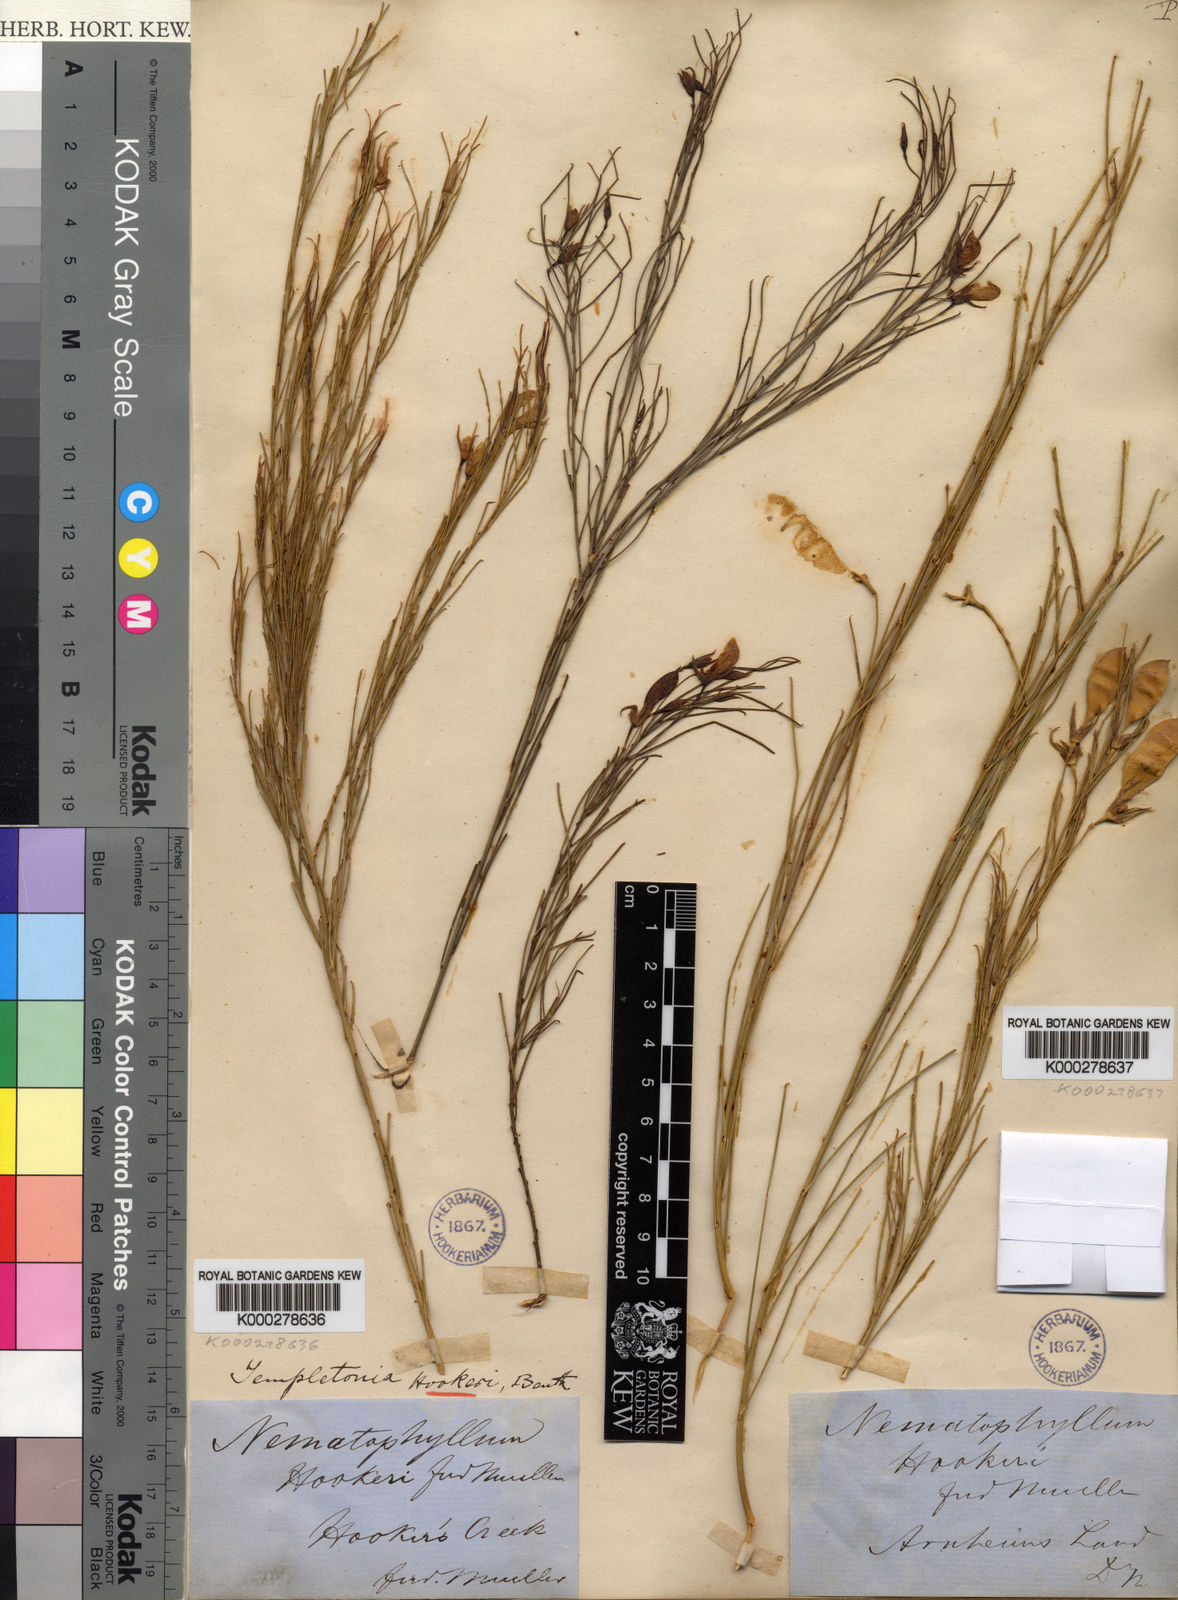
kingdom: Plantae
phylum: Tracheophyta
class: Magnoliopsida
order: Fabales
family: Fabaceae
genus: Templetonia
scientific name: Templetonia hookeri
